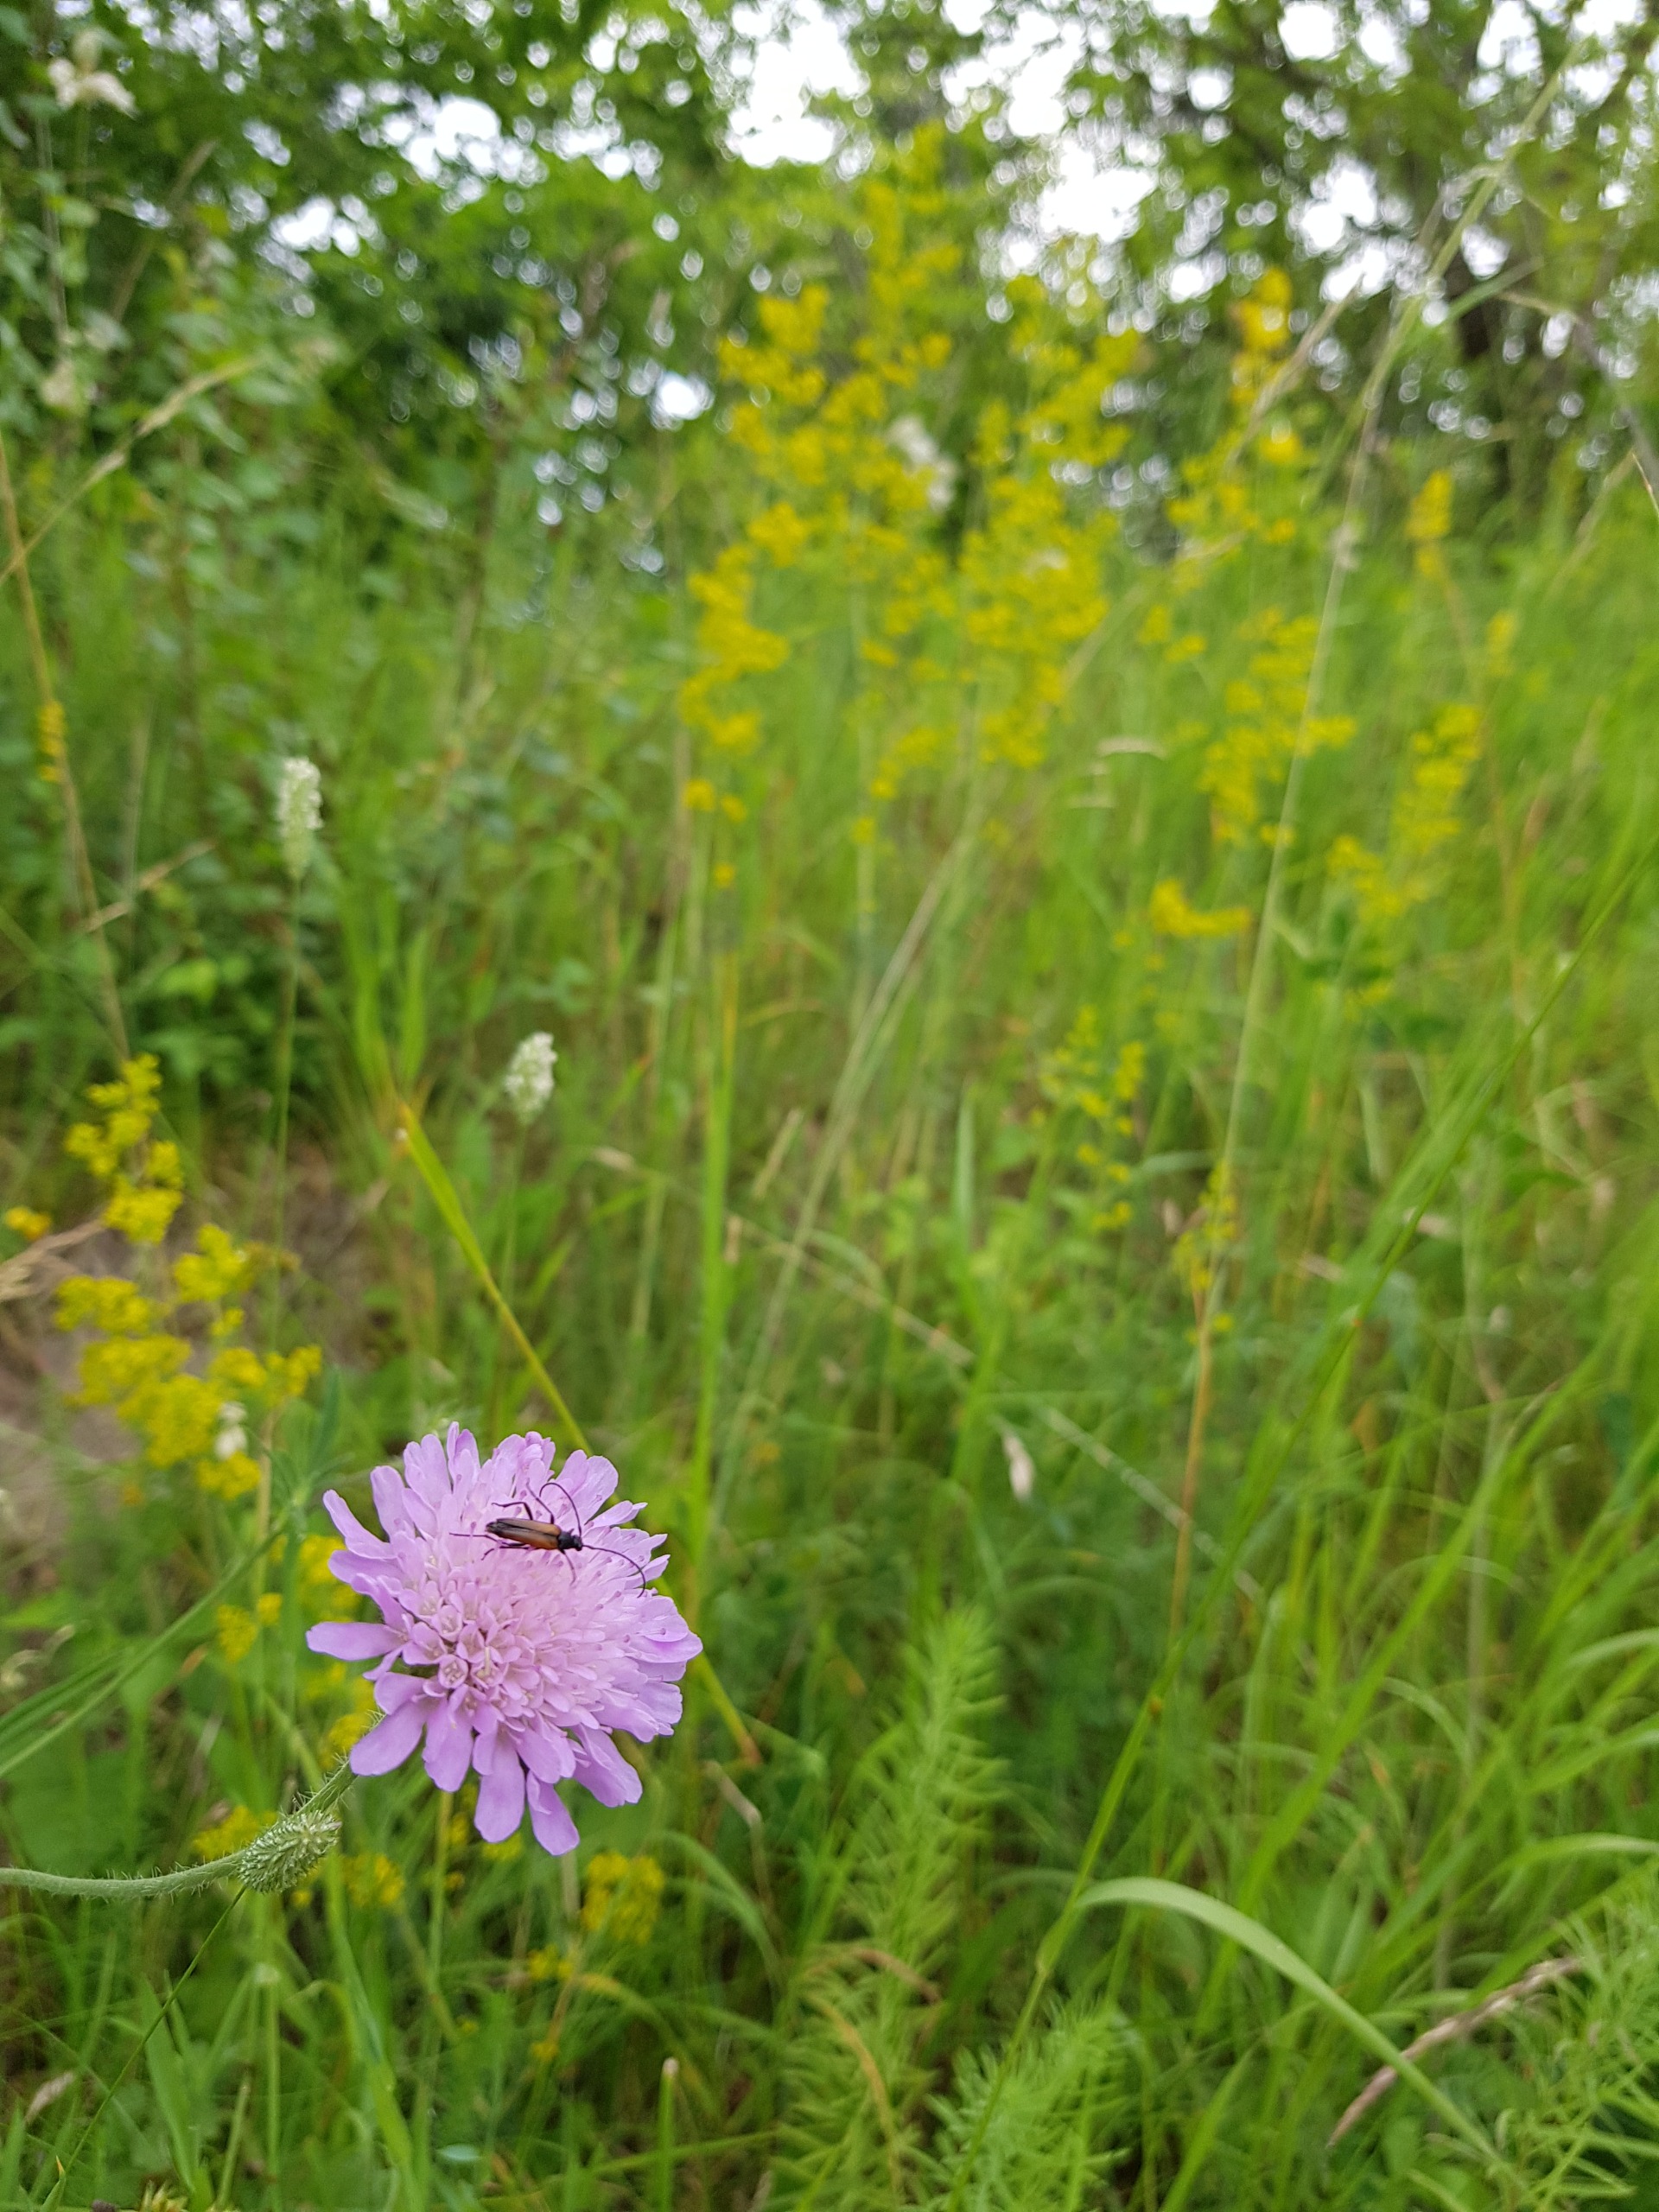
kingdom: Plantae
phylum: Tracheophyta
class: Magnoliopsida
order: Dipsacales
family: Caprifoliaceae
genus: Knautia
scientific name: Knautia arvensis
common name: Blåhat
